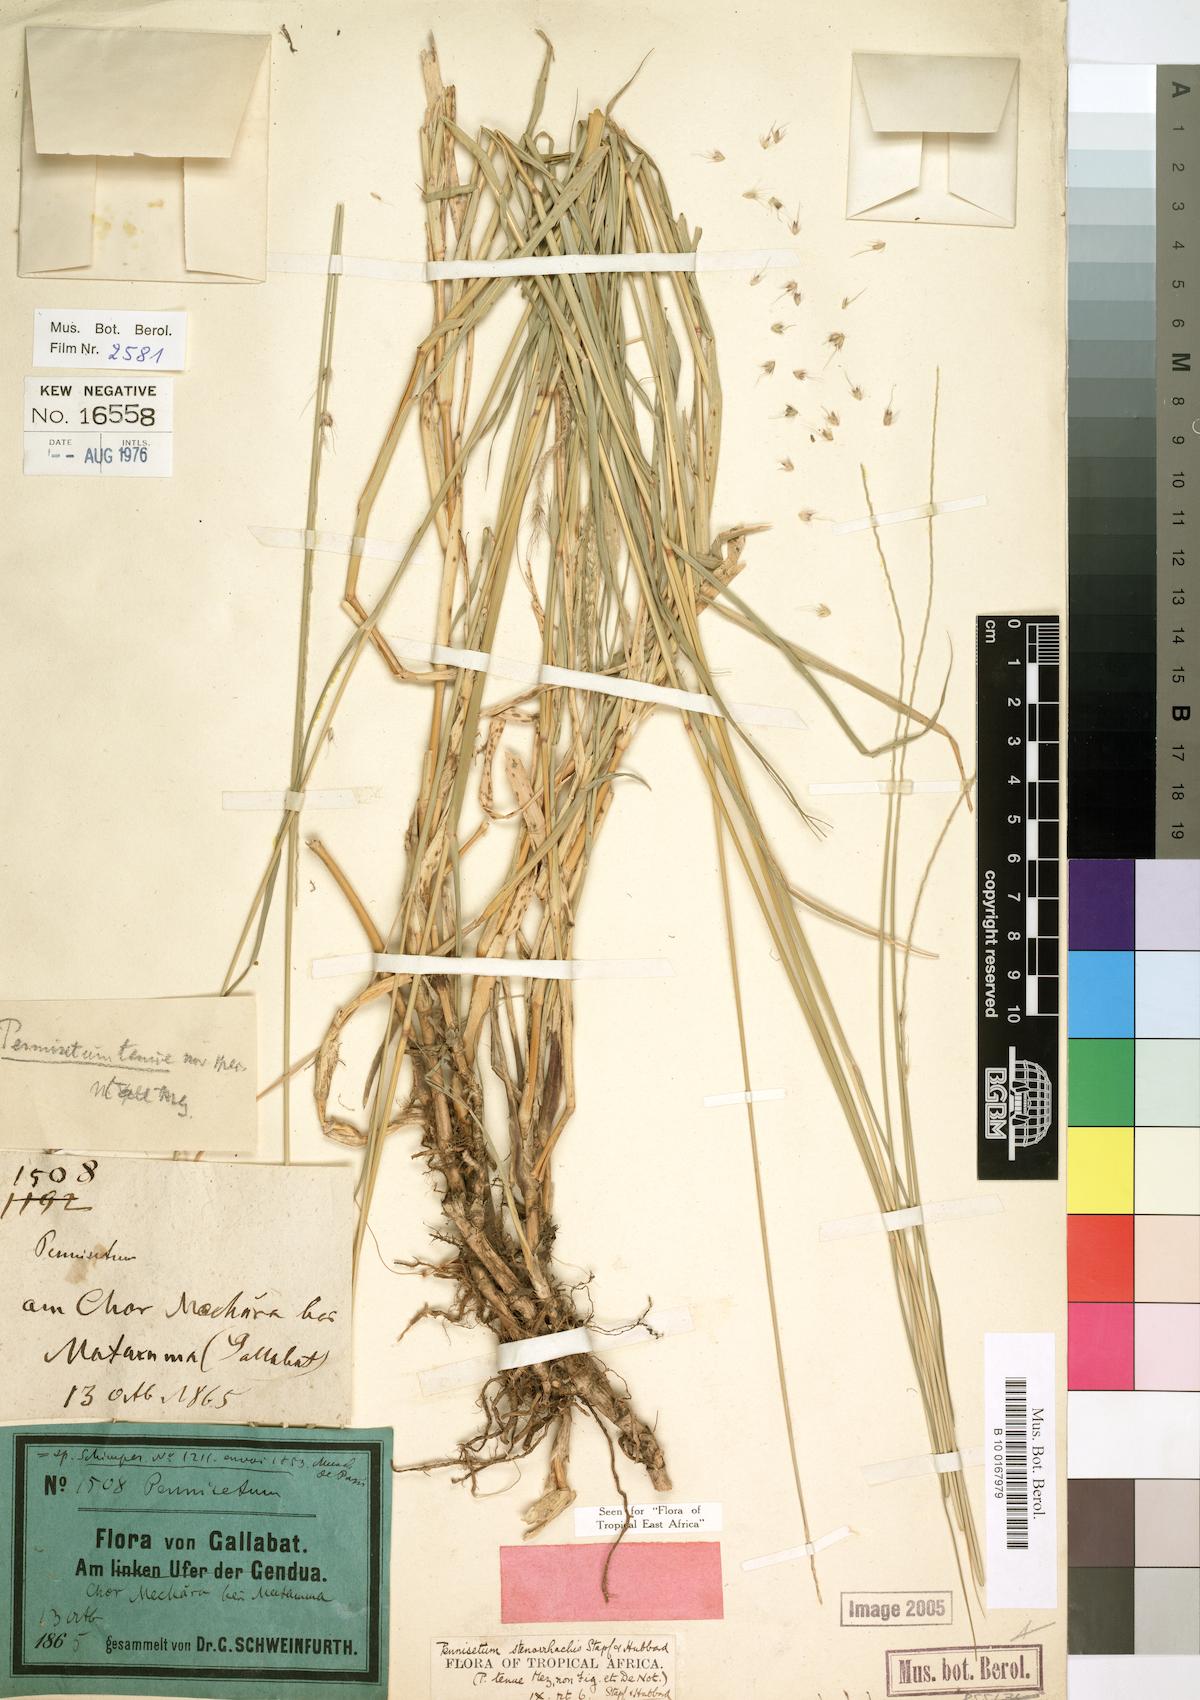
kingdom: Plantae
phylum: Tracheophyta
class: Liliopsida
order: Poales
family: Poaceae
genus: Cenchrus
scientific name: Cenchrus caudatus
